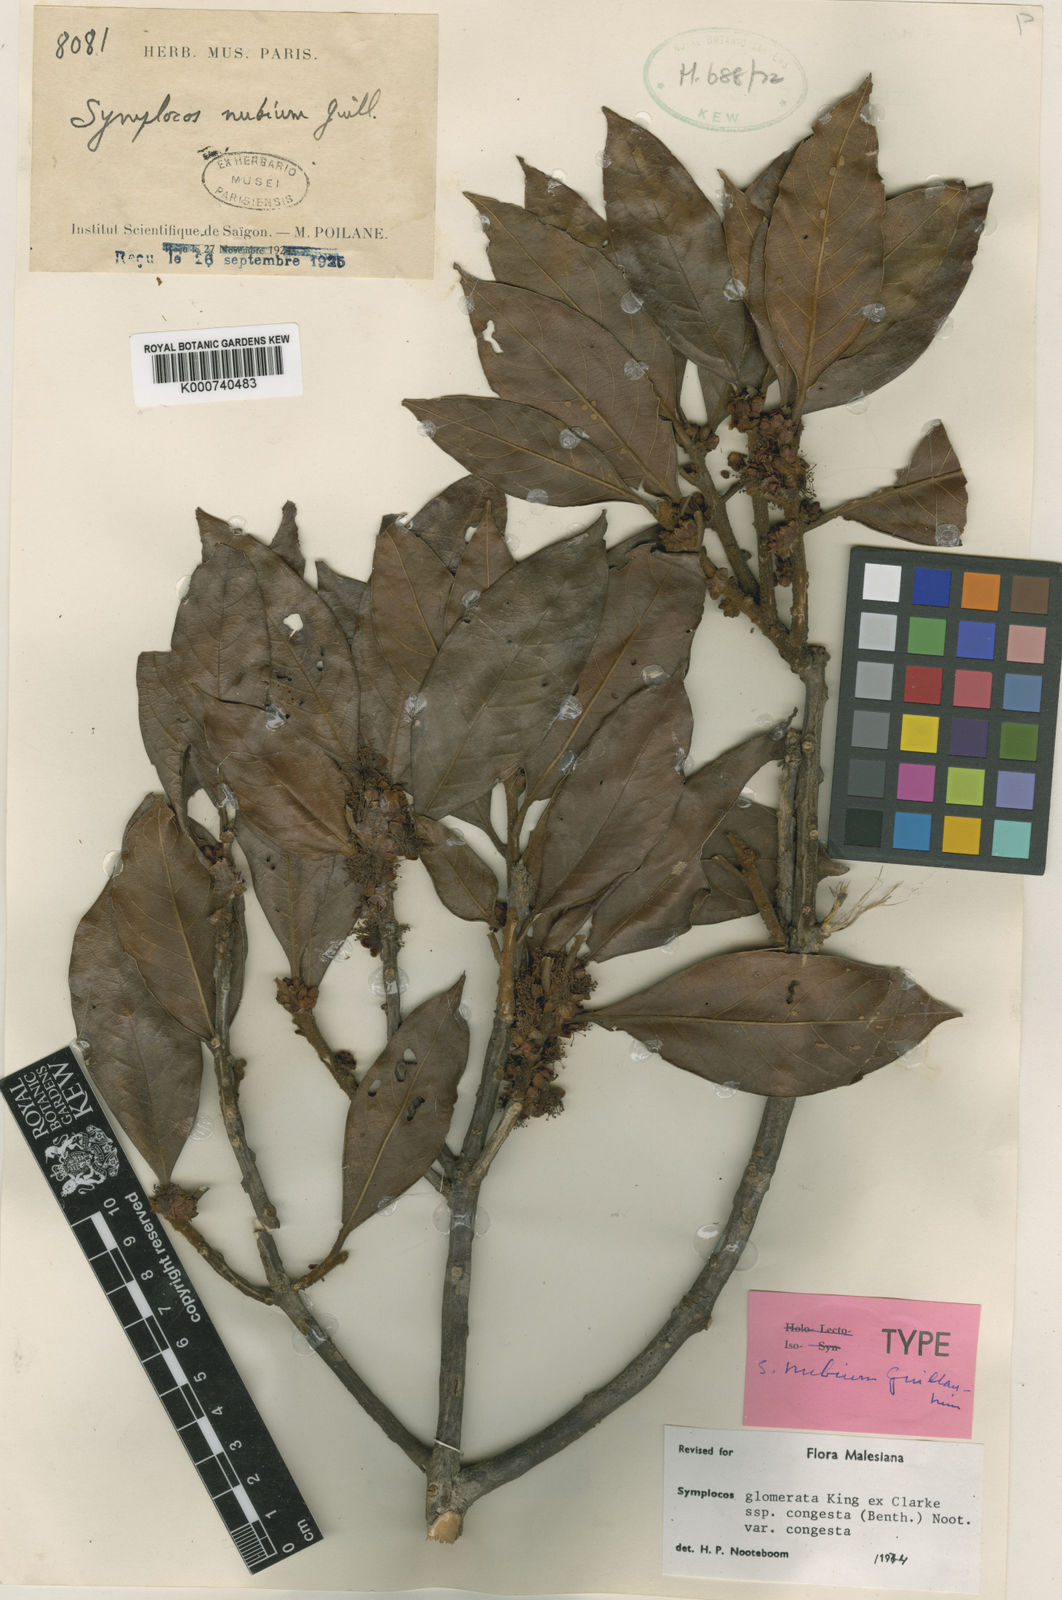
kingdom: Plantae
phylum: Tracheophyta
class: Magnoliopsida
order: Ericales
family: Symplocaceae
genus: Symplocos
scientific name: Symplocos congesta
